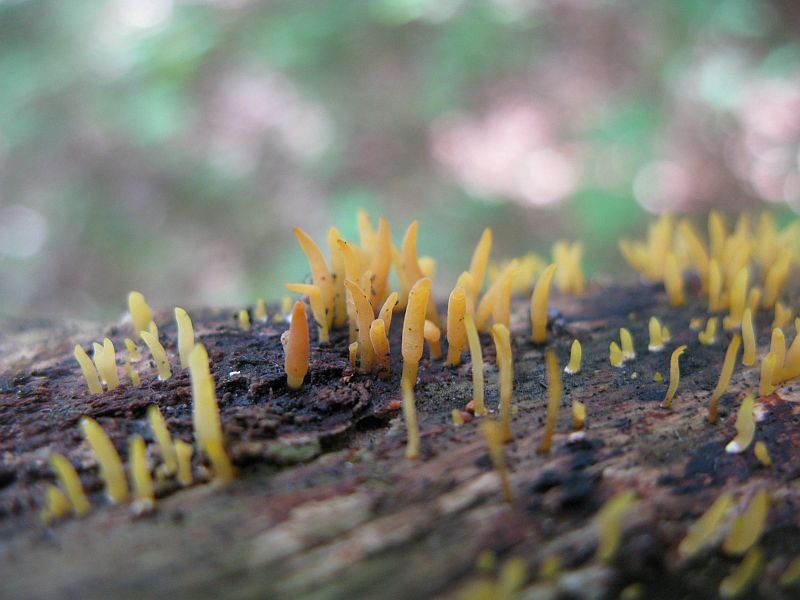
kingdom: Fungi
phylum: Basidiomycota
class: Dacrymycetes
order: Dacrymycetales
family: Dacrymycetaceae
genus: Calocera
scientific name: Calocera cornea
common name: liden guldgaffel
